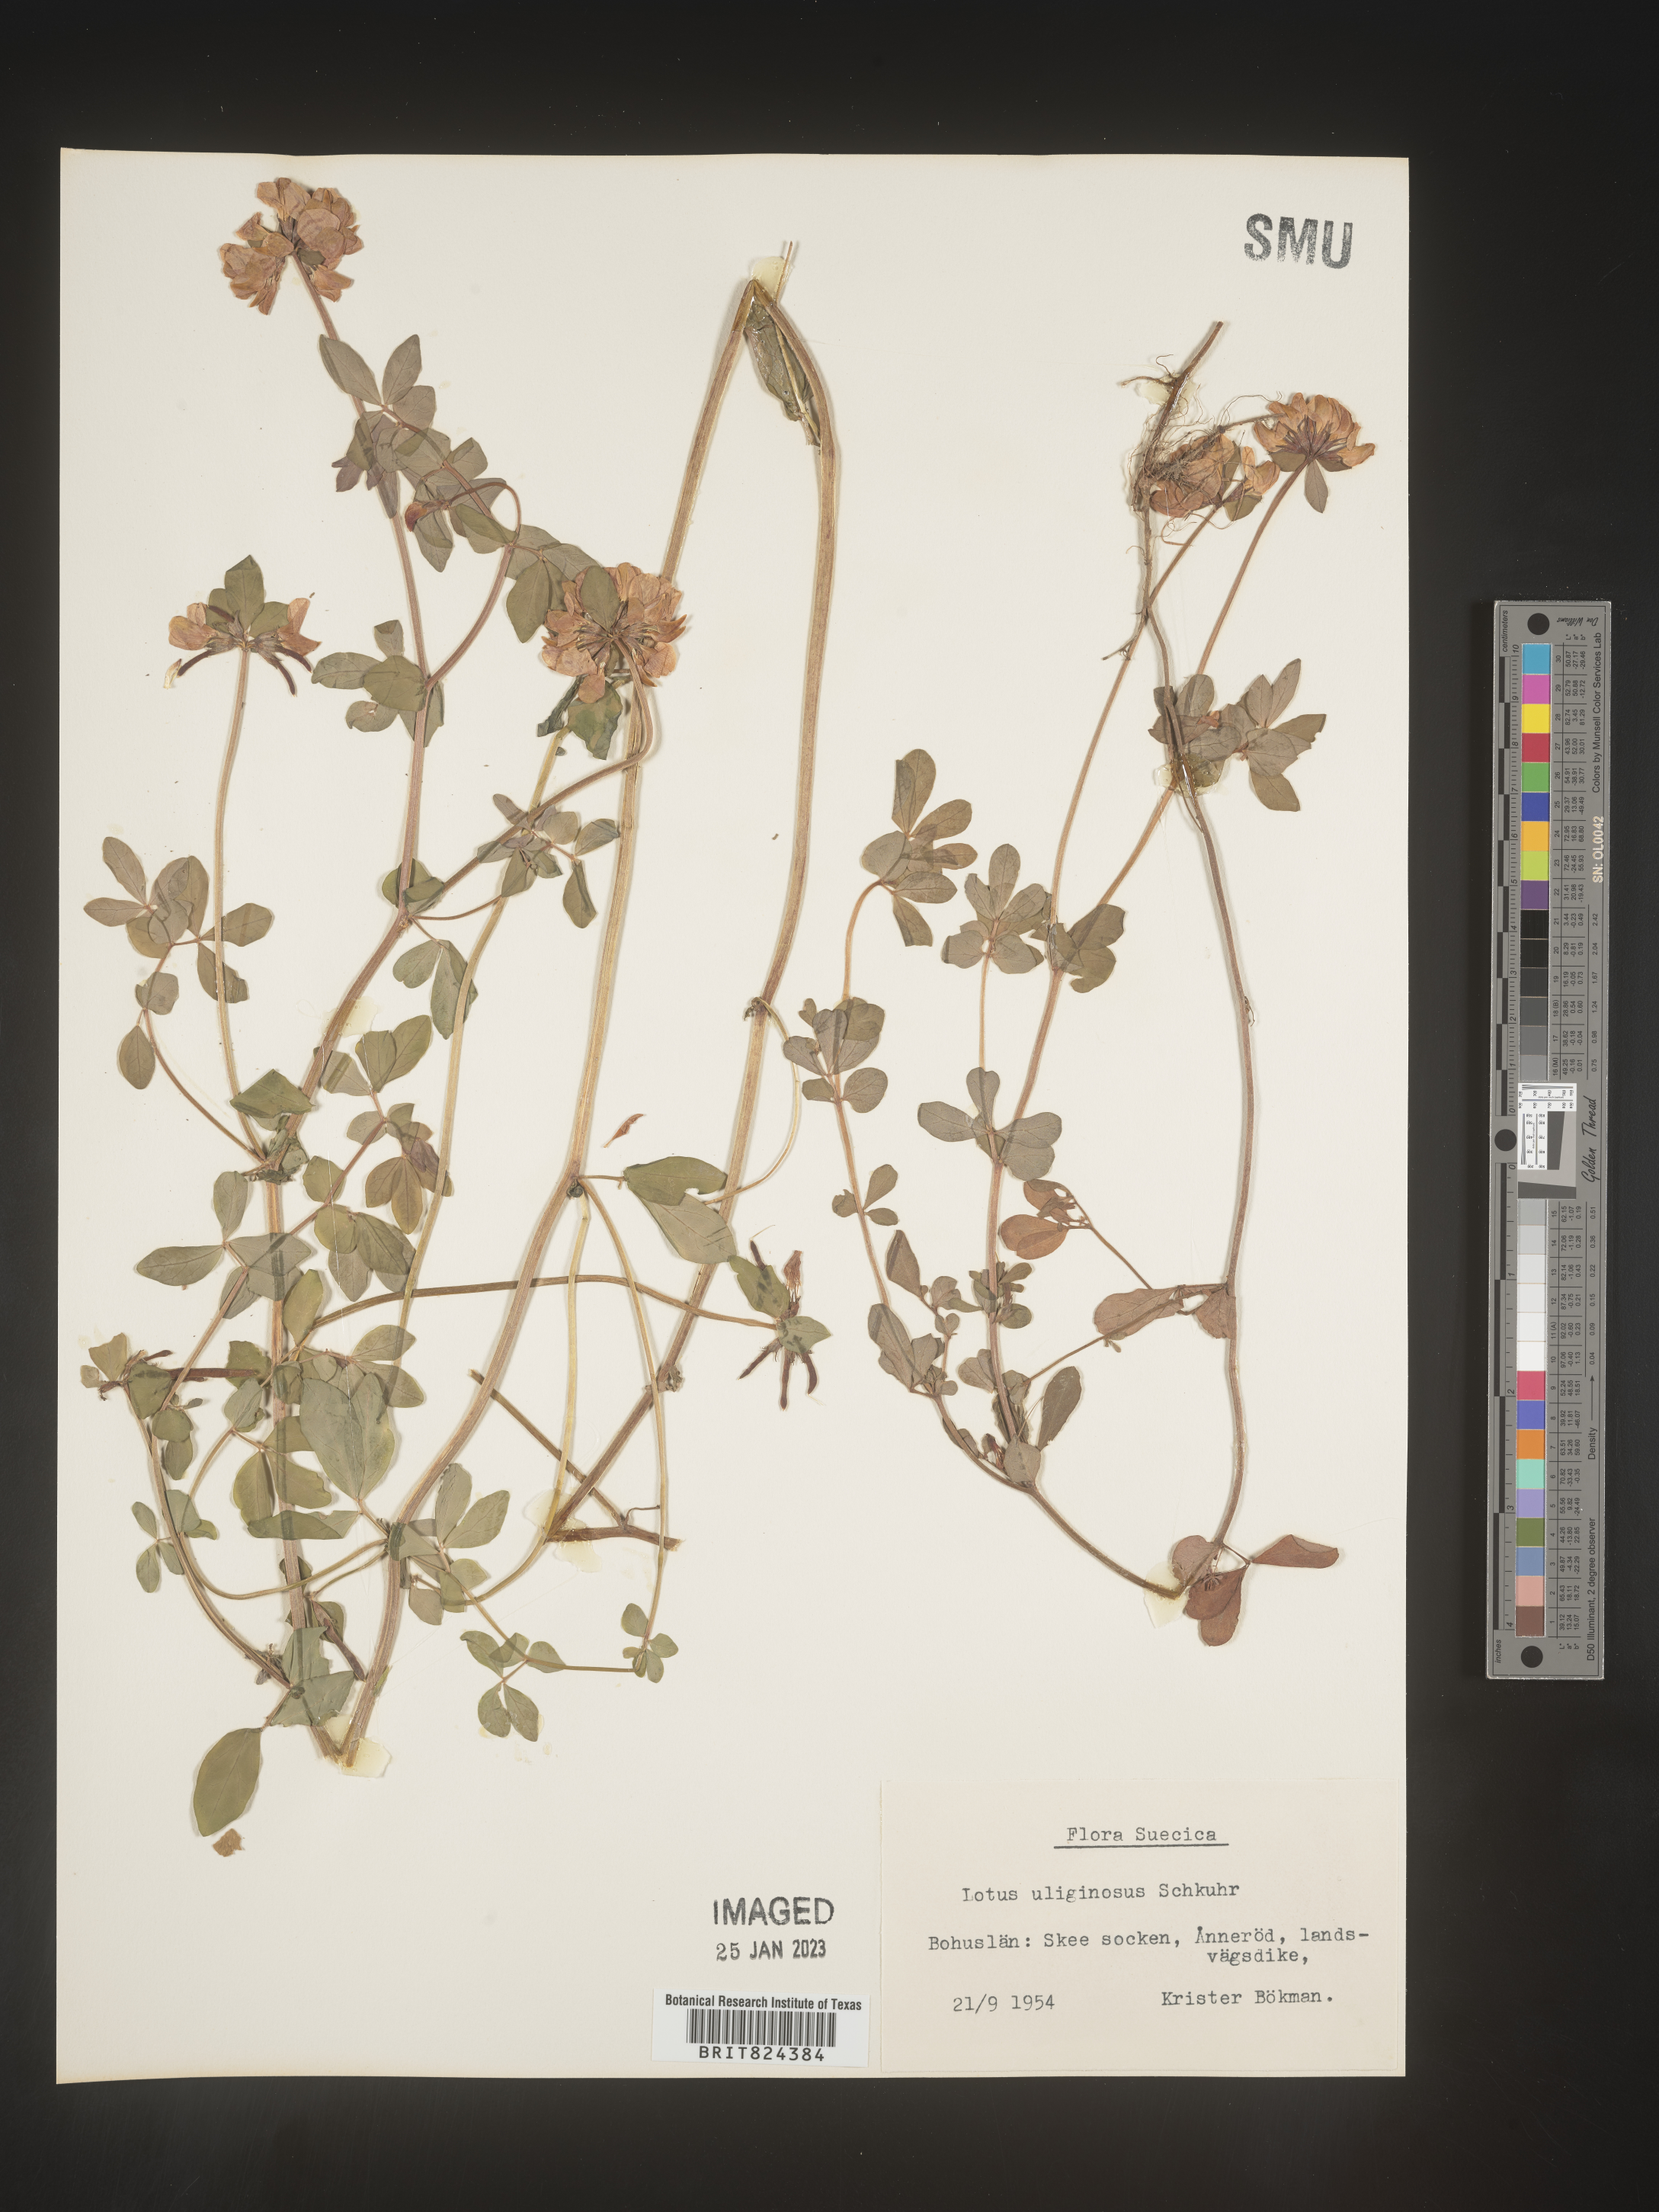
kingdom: Plantae
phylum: Tracheophyta
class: Magnoliopsida
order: Fabales
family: Fabaceae
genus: Lotus
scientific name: Lotus
